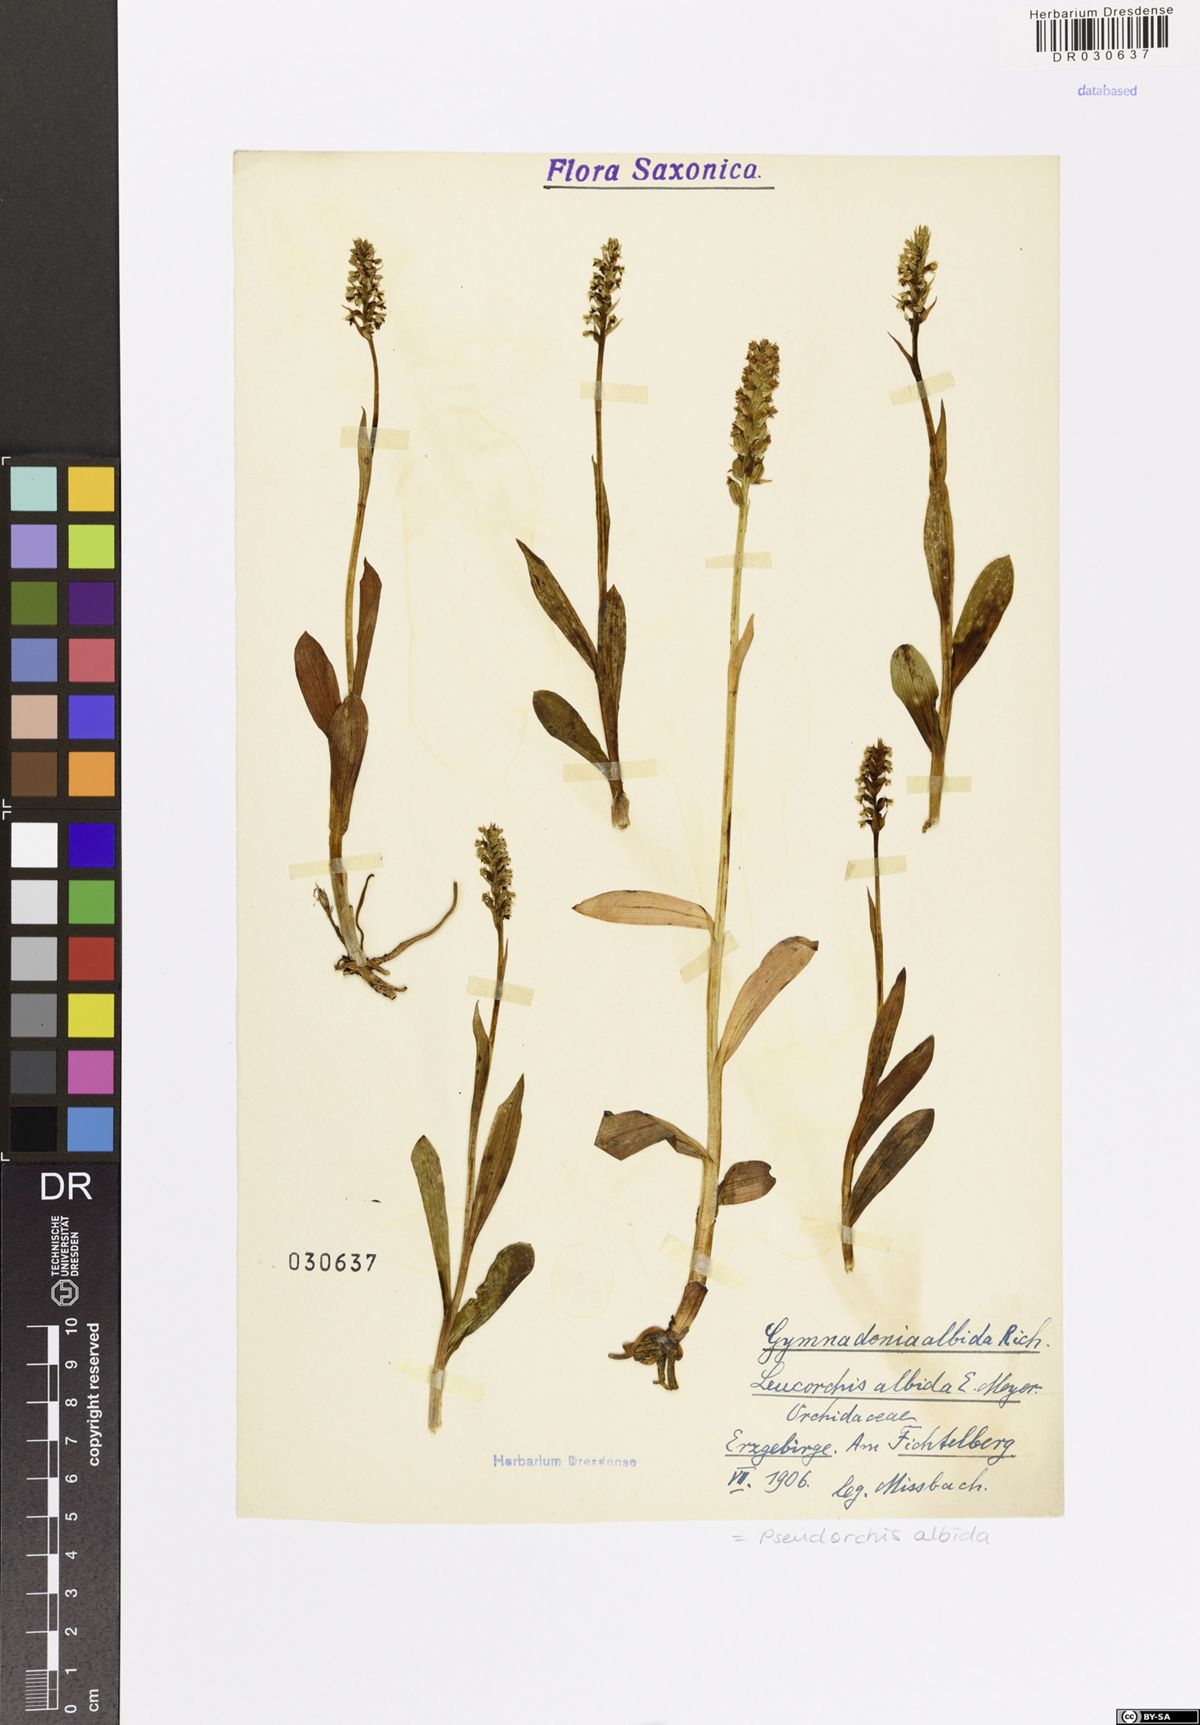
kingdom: Plantae
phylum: Tracheophyta
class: Liliopsida
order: Asparagales
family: Orchidaceae
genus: Pseudorchis
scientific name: Pseudorchis albida
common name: Small-white orchid
